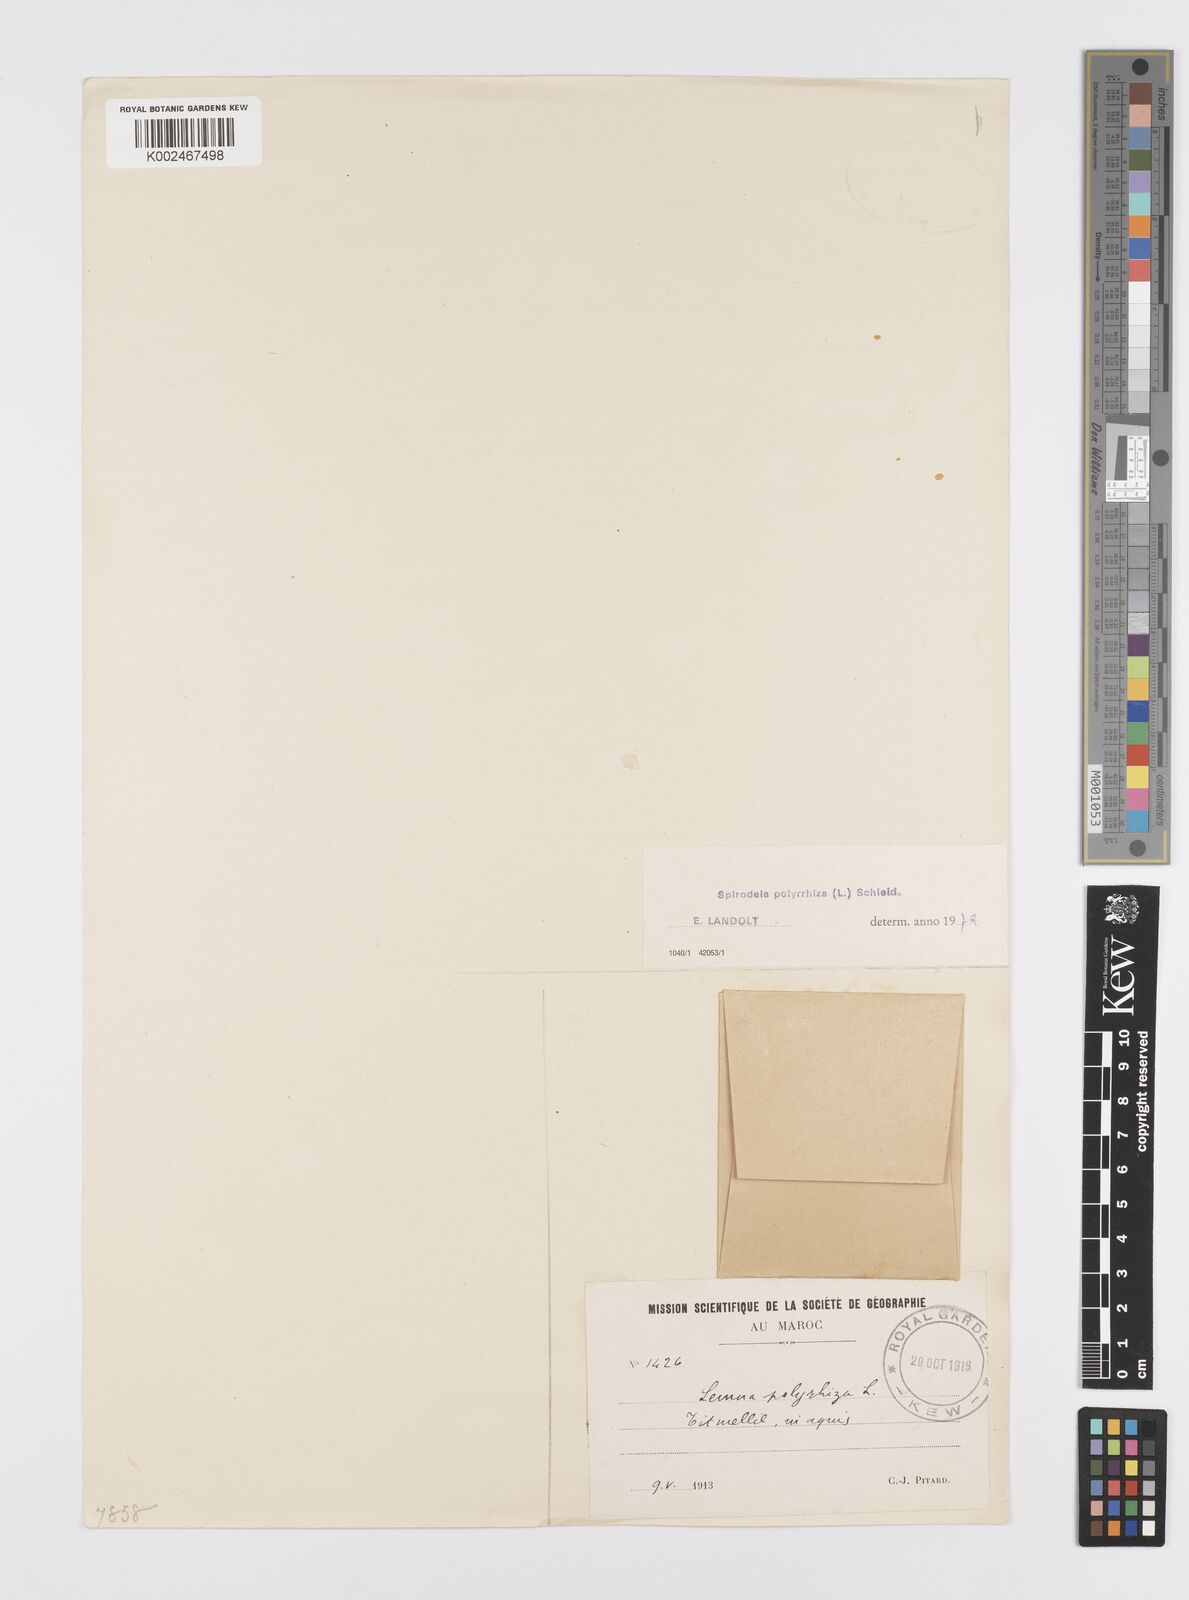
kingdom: Plantae
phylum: Tracheophyta
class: Liliopsida
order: Alismatales
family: Araceae
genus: Spirodela
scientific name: Spirodela polyrhiza
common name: Great duckweed
